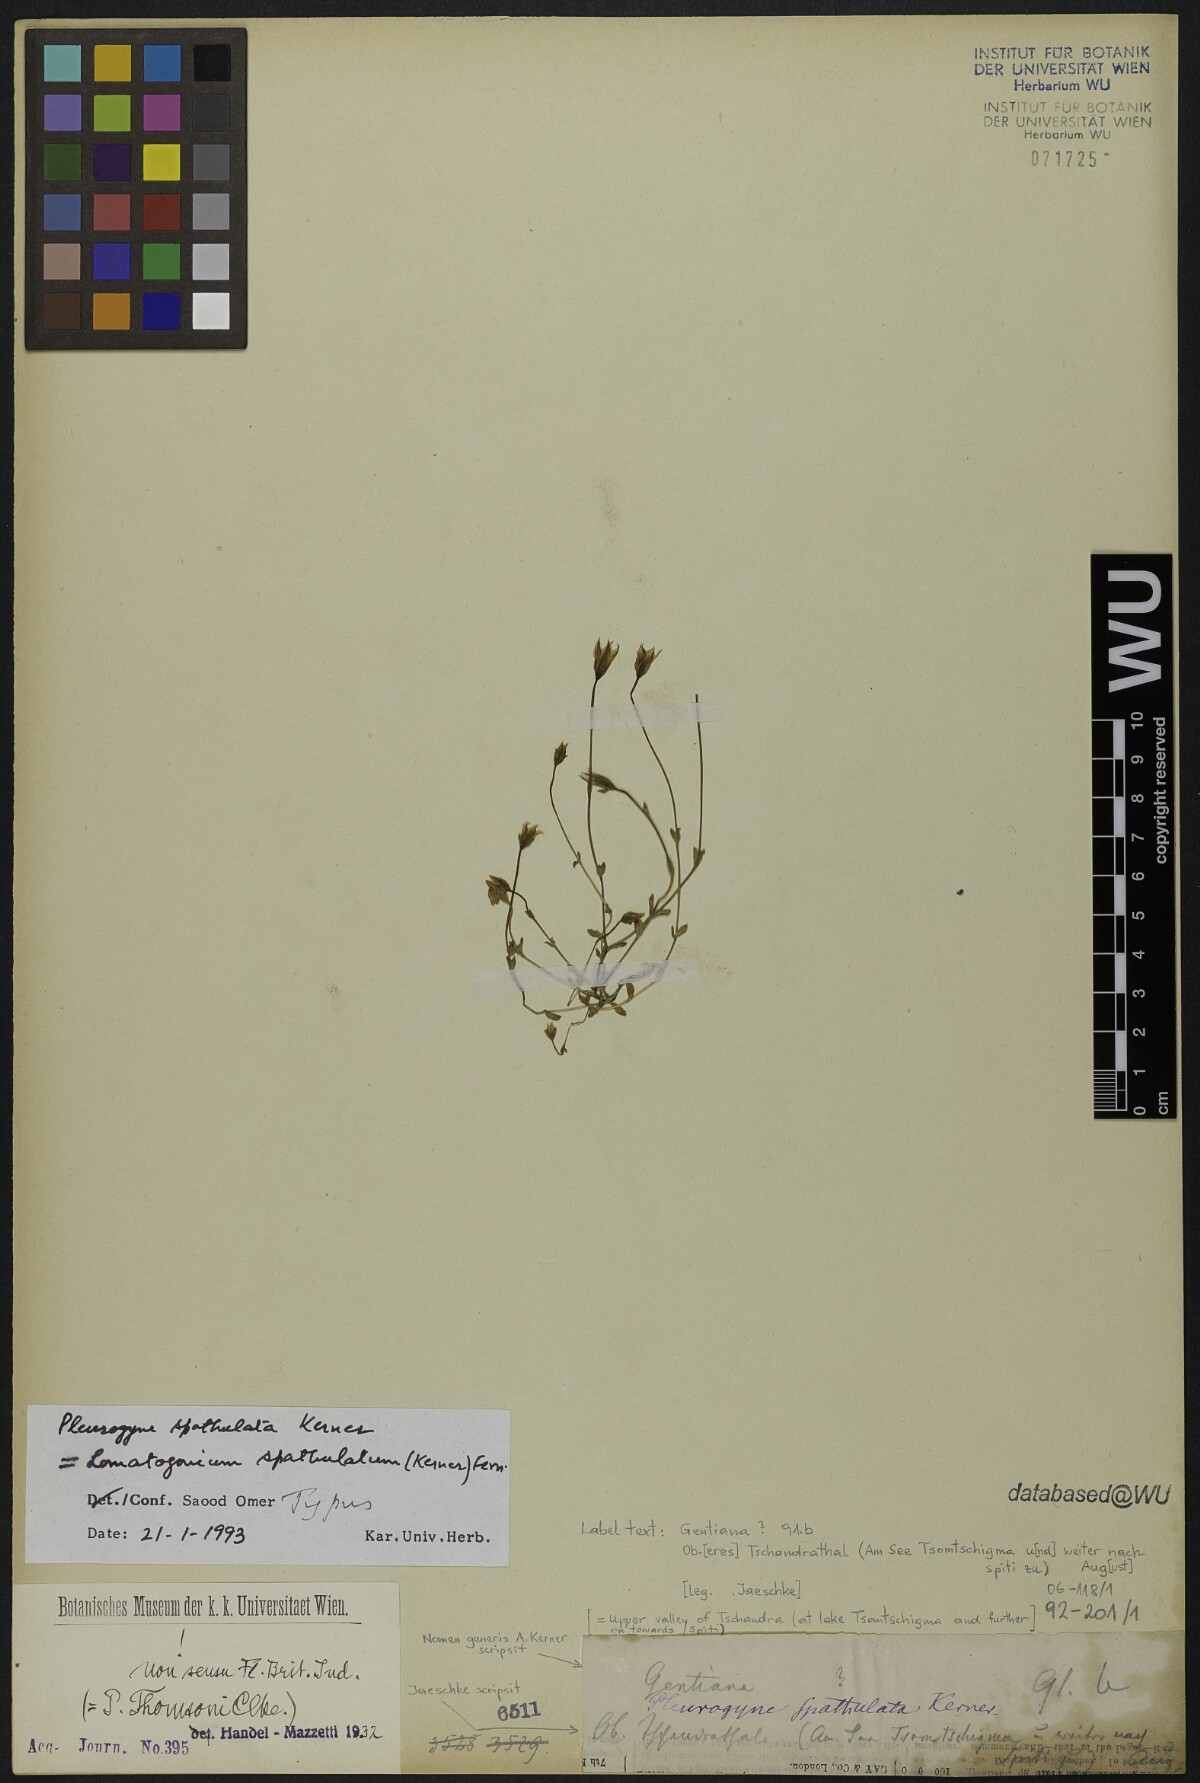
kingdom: Plantae
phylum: Tracheophyta
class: Magnoliopsida
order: Gentianales
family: Gentianaceae
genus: Lomatogonium
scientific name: Lomatogonium caeruleum
